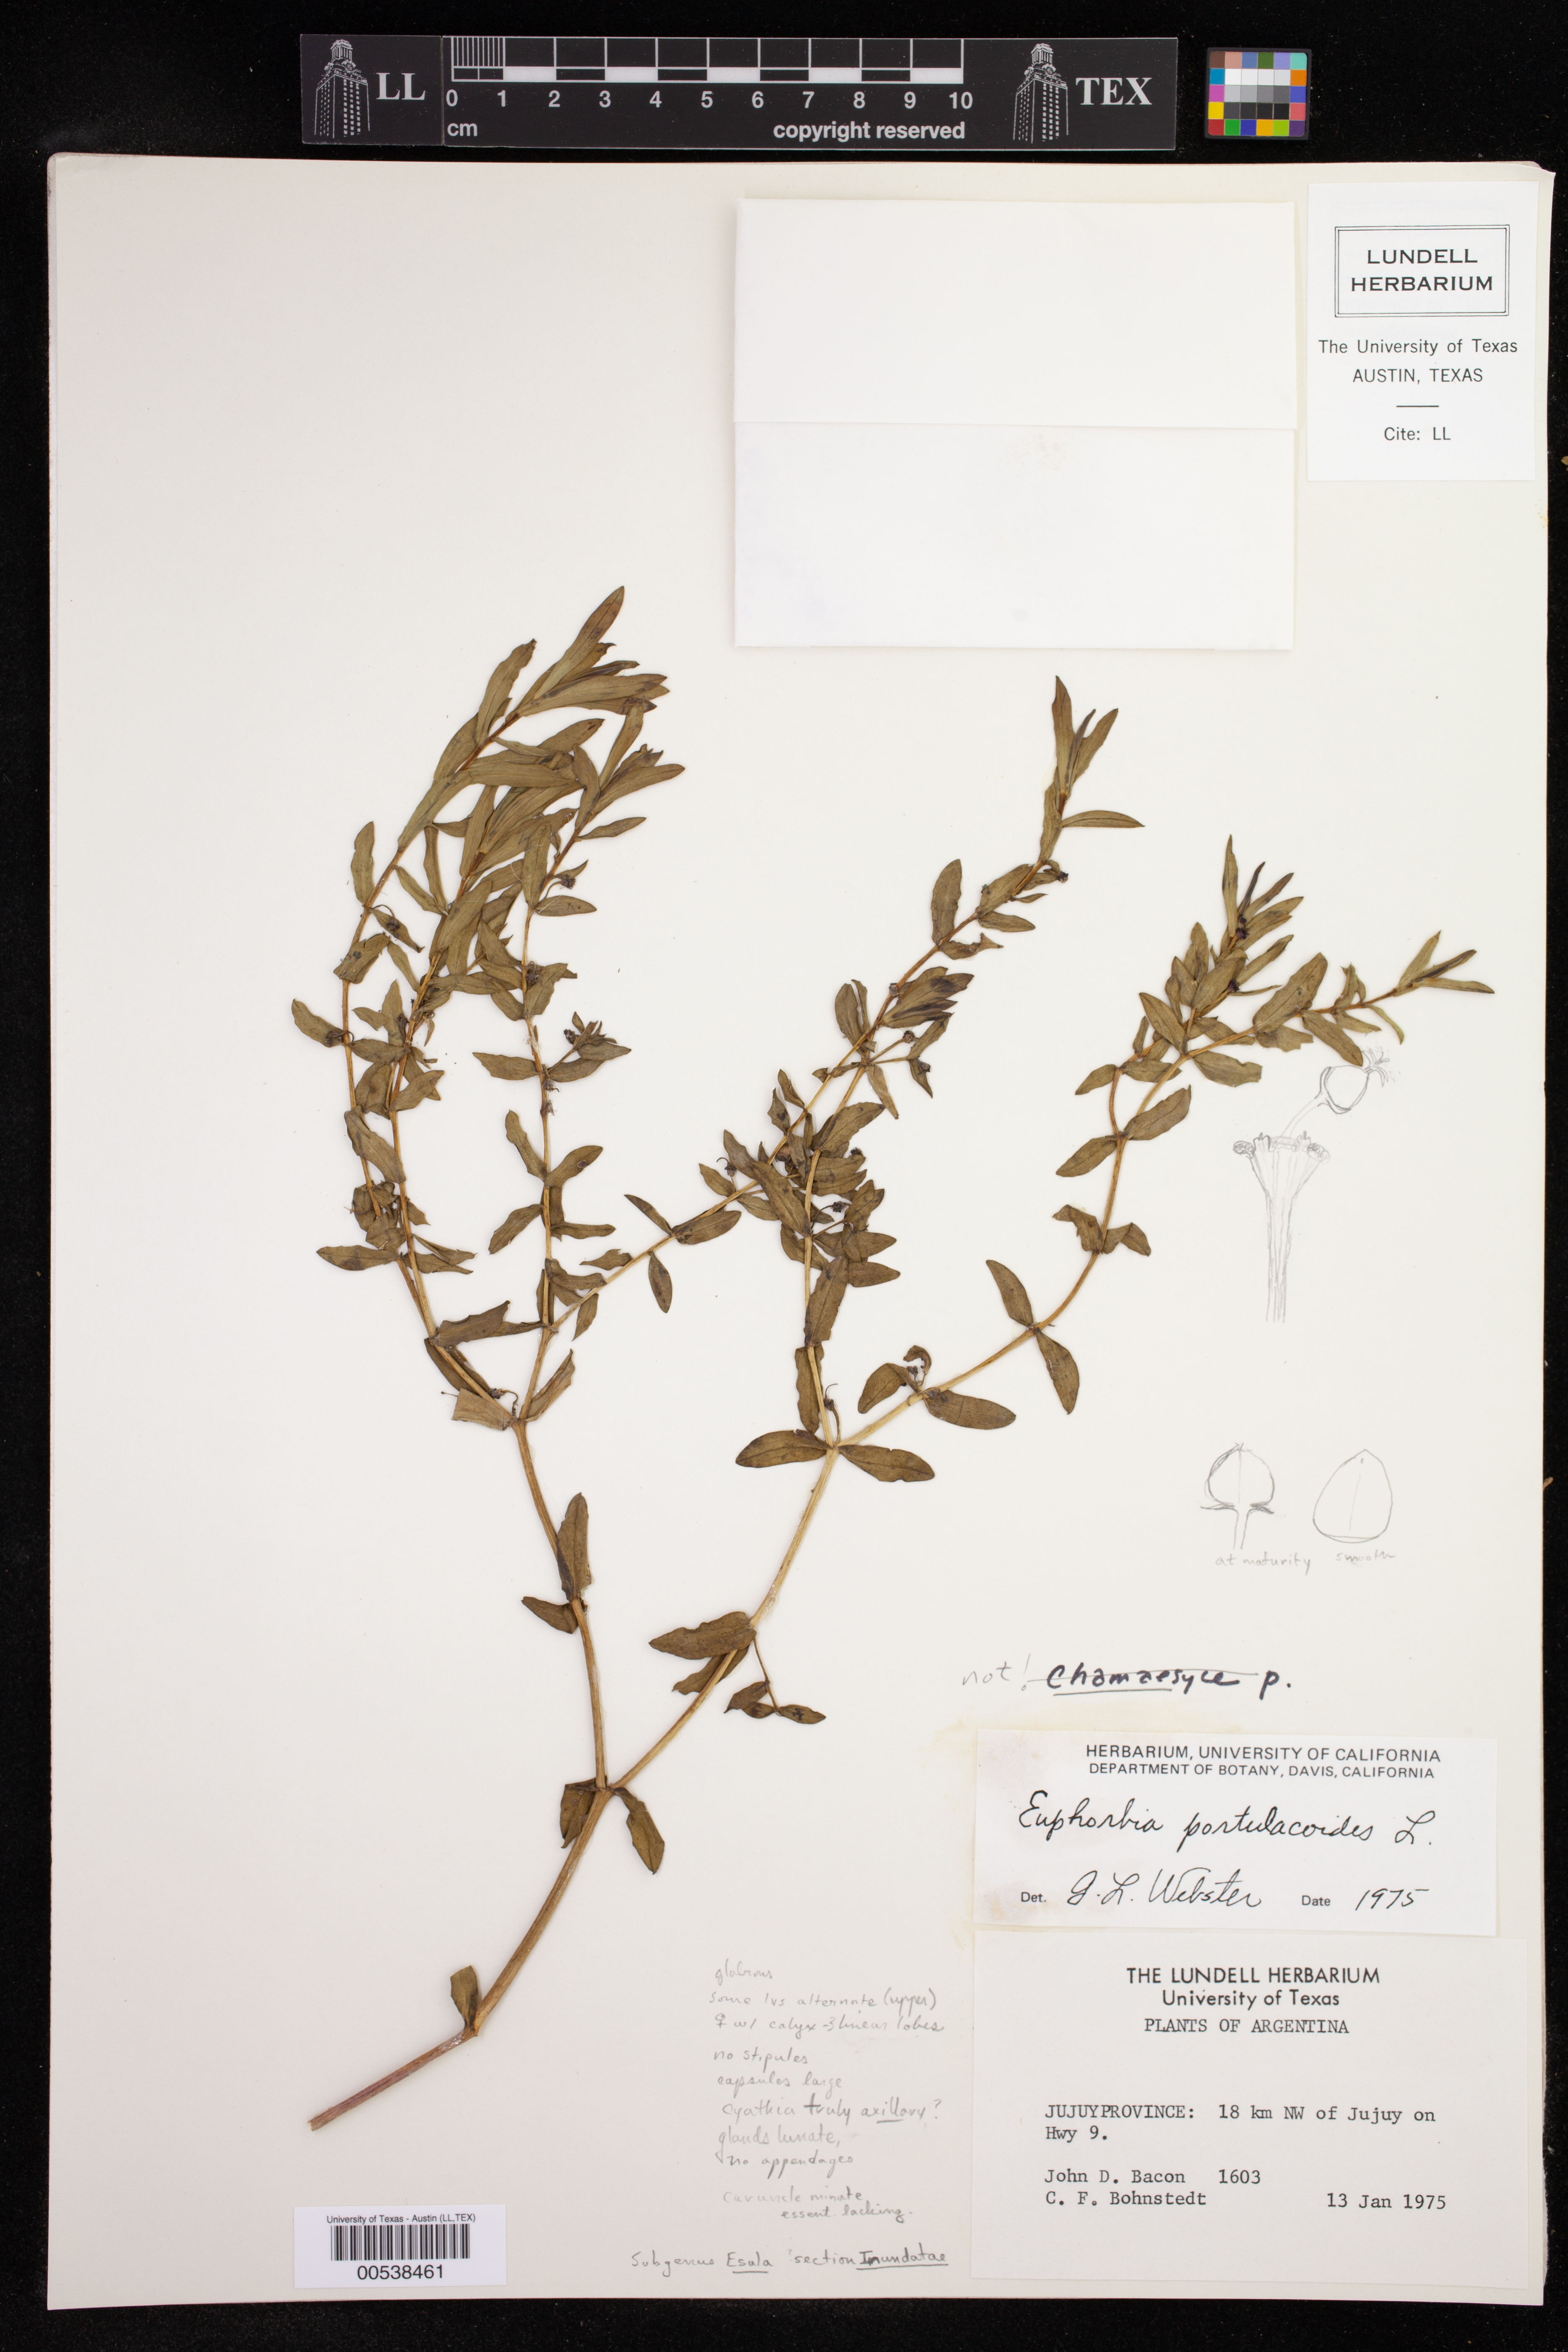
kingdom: Plantae
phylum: Tracheophyta
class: Magnoliopsida
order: Malpighiales
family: Euphorbiaceae
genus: Euphorbia
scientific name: Euphorbia portulacoides
